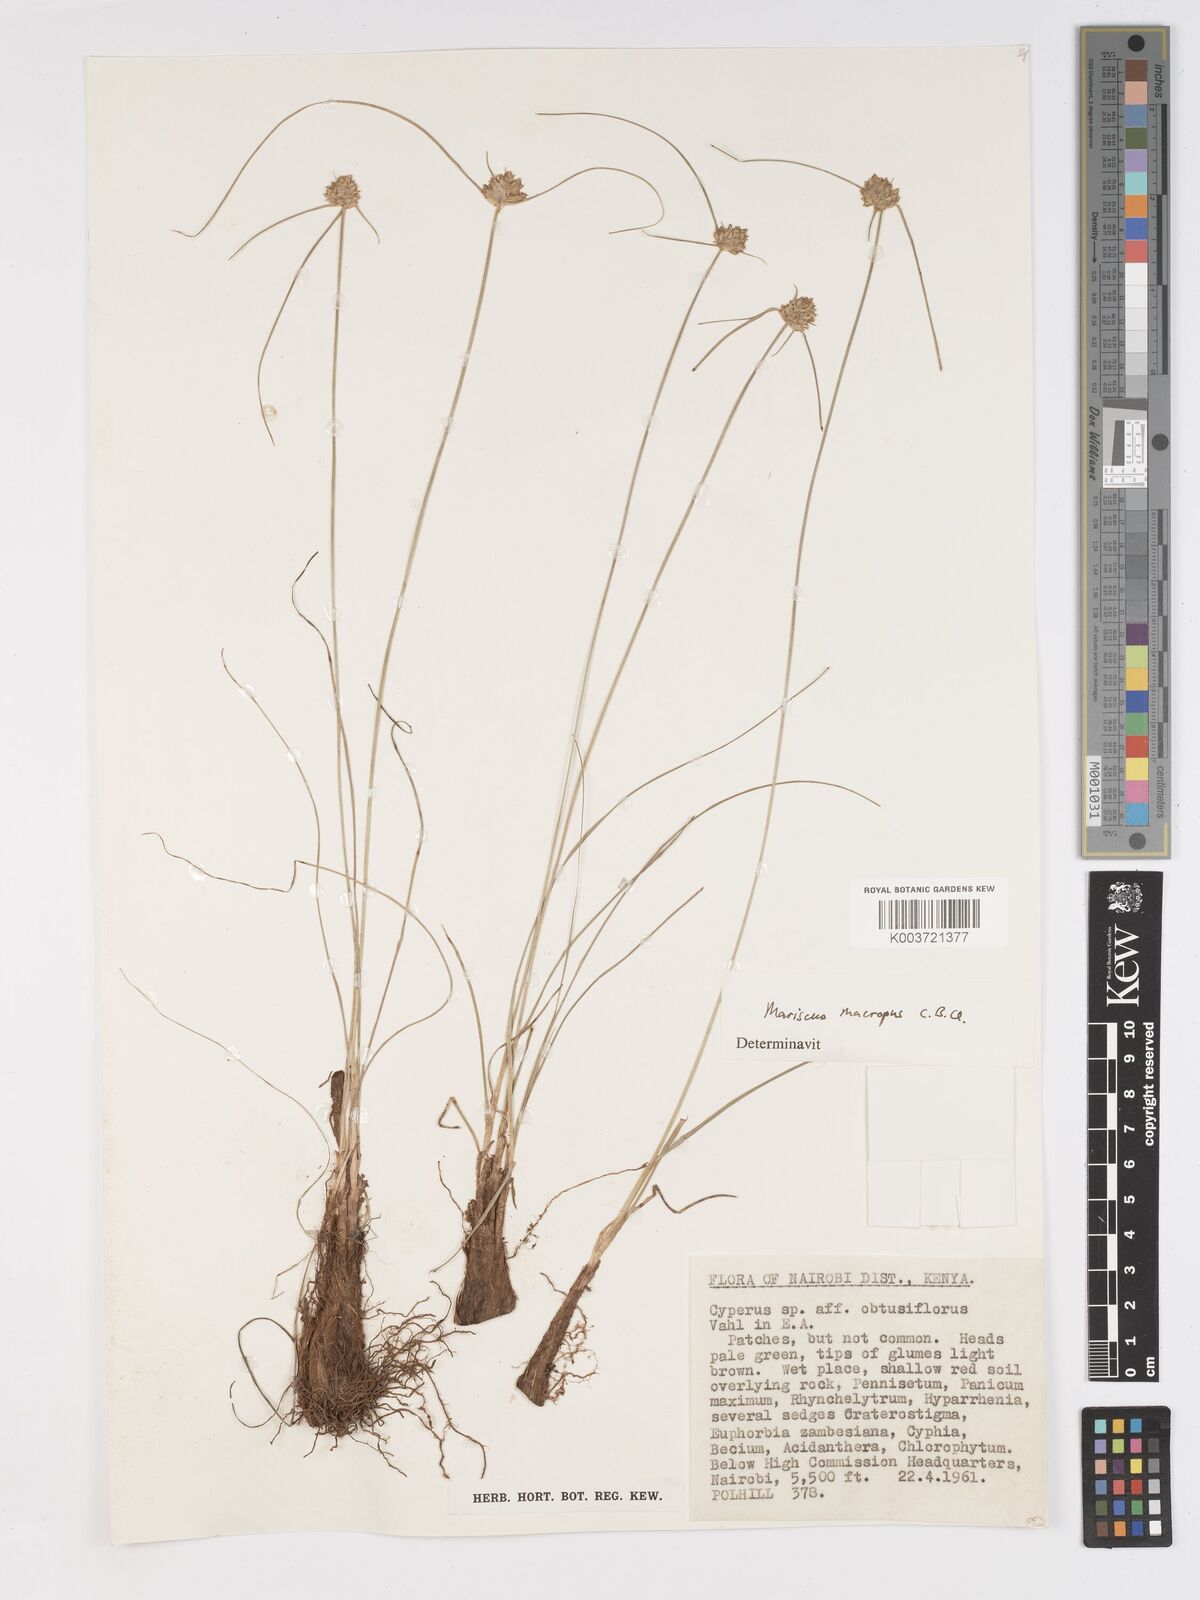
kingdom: Plantae
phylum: Tracheophyta
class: Liliopsida
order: Poales
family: Cyperaceae
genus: Cyperus
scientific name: Cyperus mollipes
